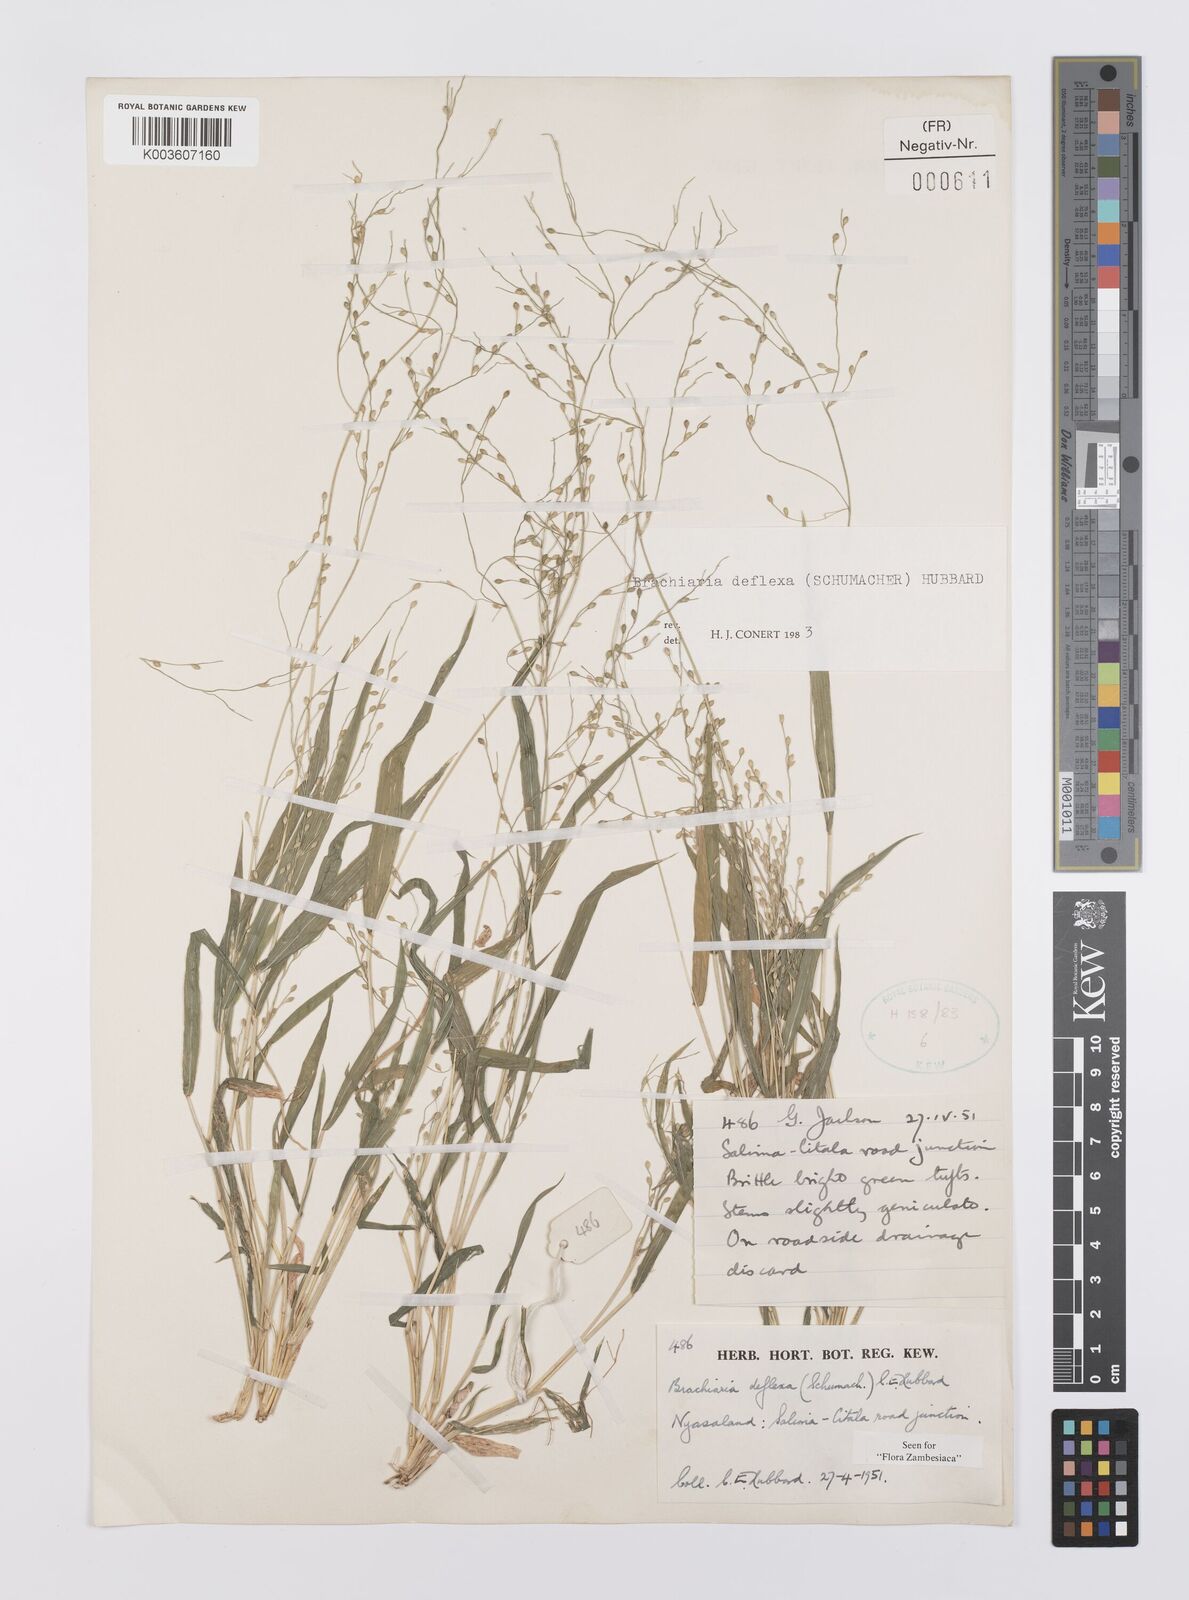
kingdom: Plantae
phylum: Tracheophyta
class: Liliopsida
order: Poales
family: Poaceae
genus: Urochloa
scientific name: Urochloa deflexa
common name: Guinea millet
